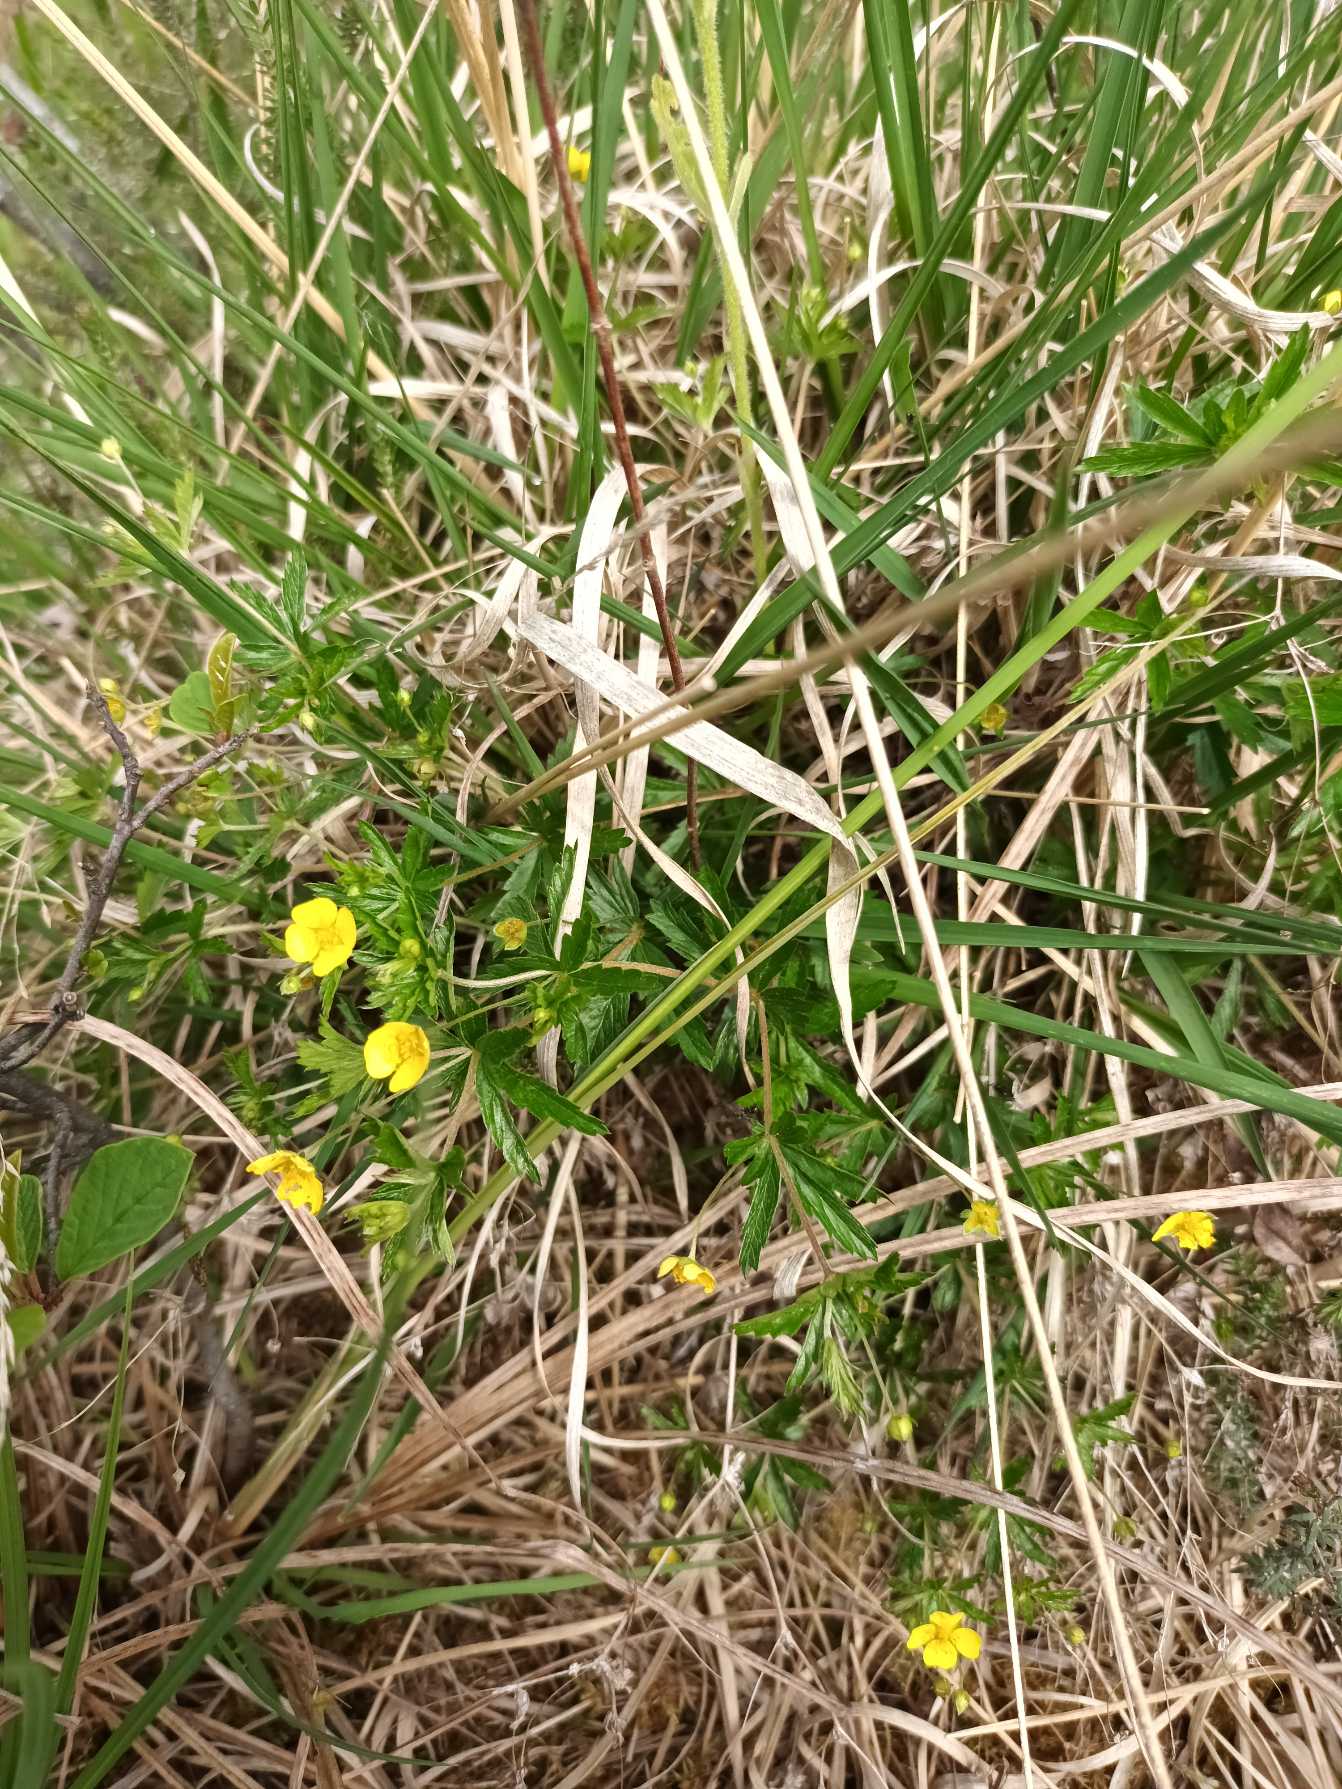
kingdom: Plantae
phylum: Tracheophyta
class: Magnoliopsida
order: Rosales
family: Rosaceae
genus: Potentilla
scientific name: Potentilla erecta
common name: Tormentil
